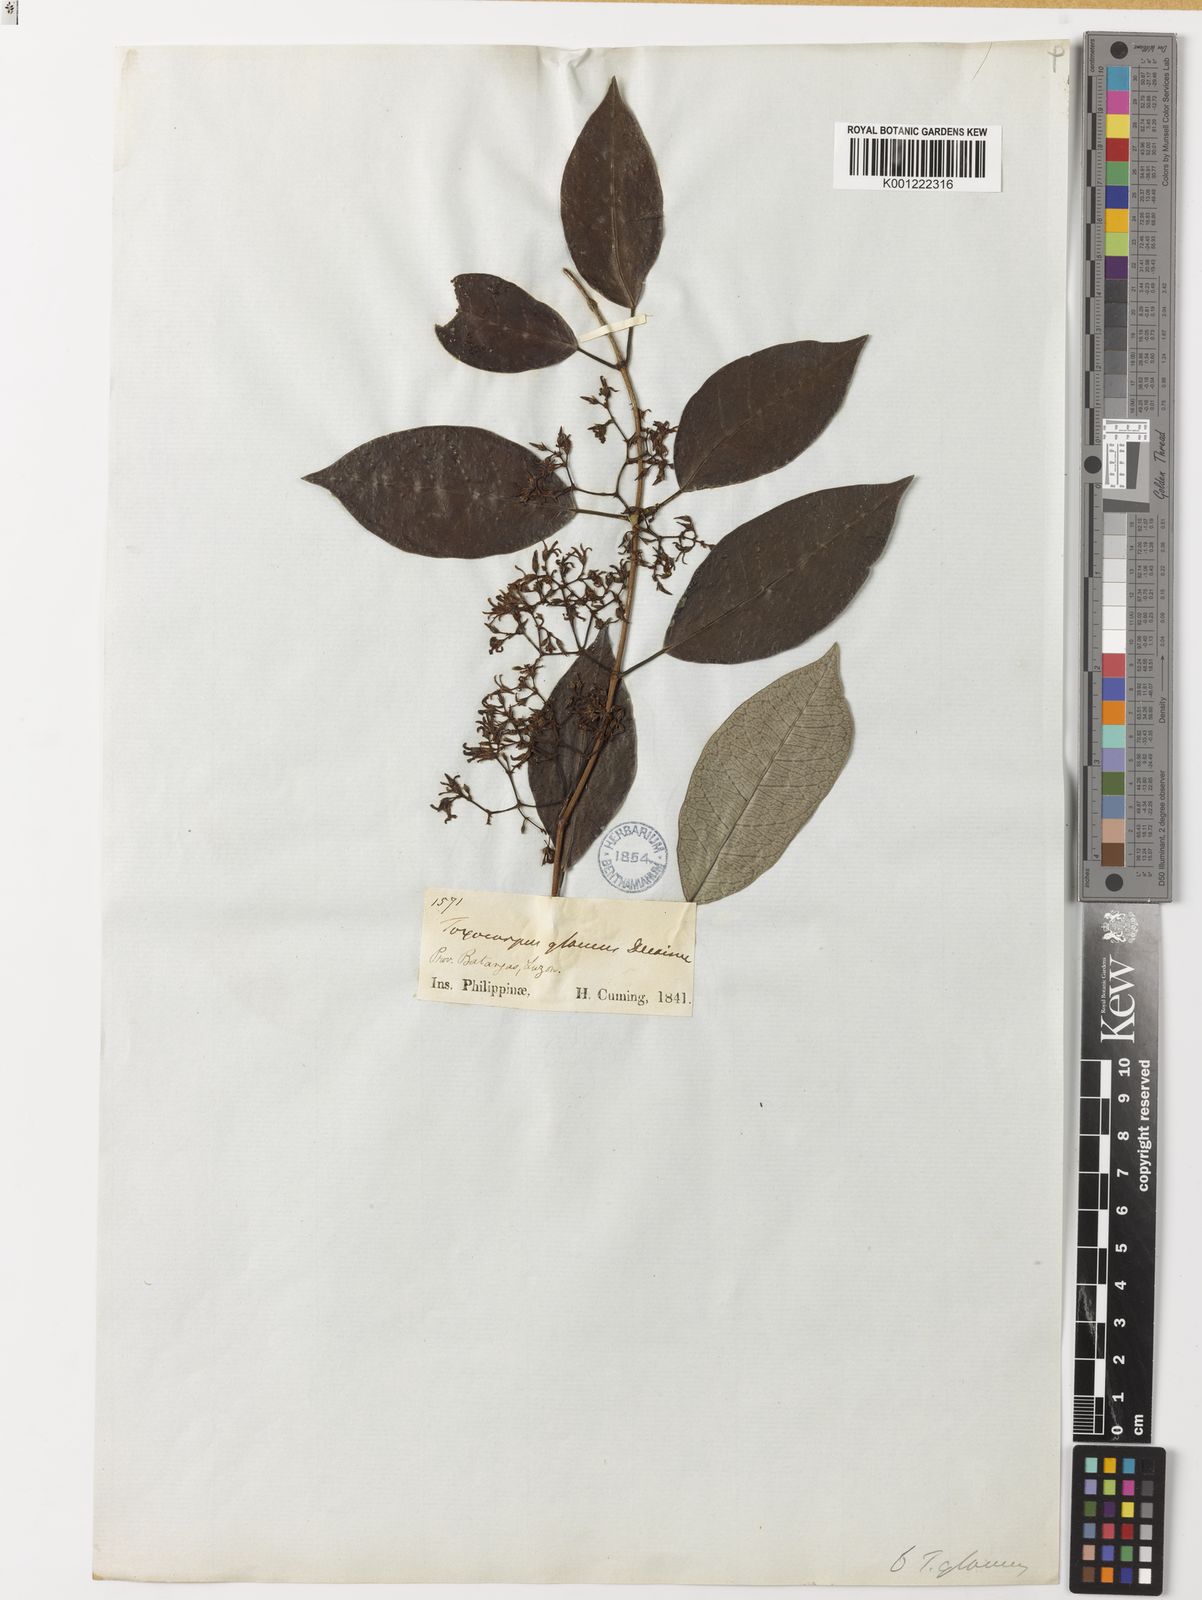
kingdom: Plantae
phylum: Tracheophyta
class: Magnoliopsida
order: Gentianales
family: Apocynaceae
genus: Toxocarpus
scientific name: Toxocarpus glaucus
